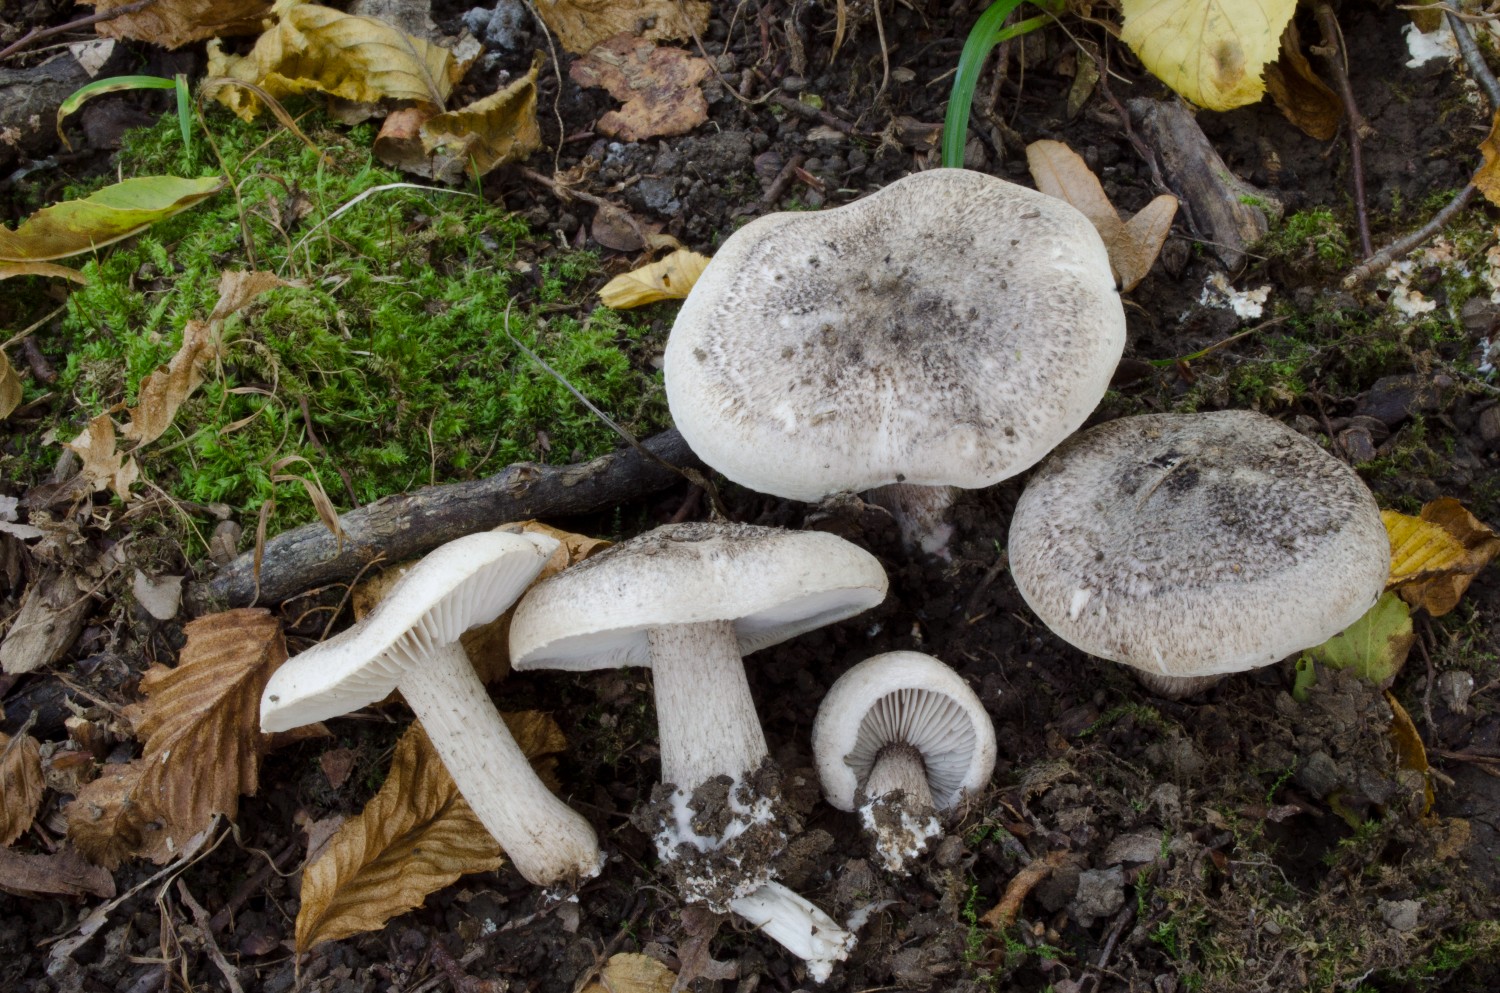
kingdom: Fungi
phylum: Basidiomycota
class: Agaricomycetes
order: Agaricales
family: Tricholomataceae
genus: Tricholoma
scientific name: Tricholoma basirubens
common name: rødfodet ridderhat
